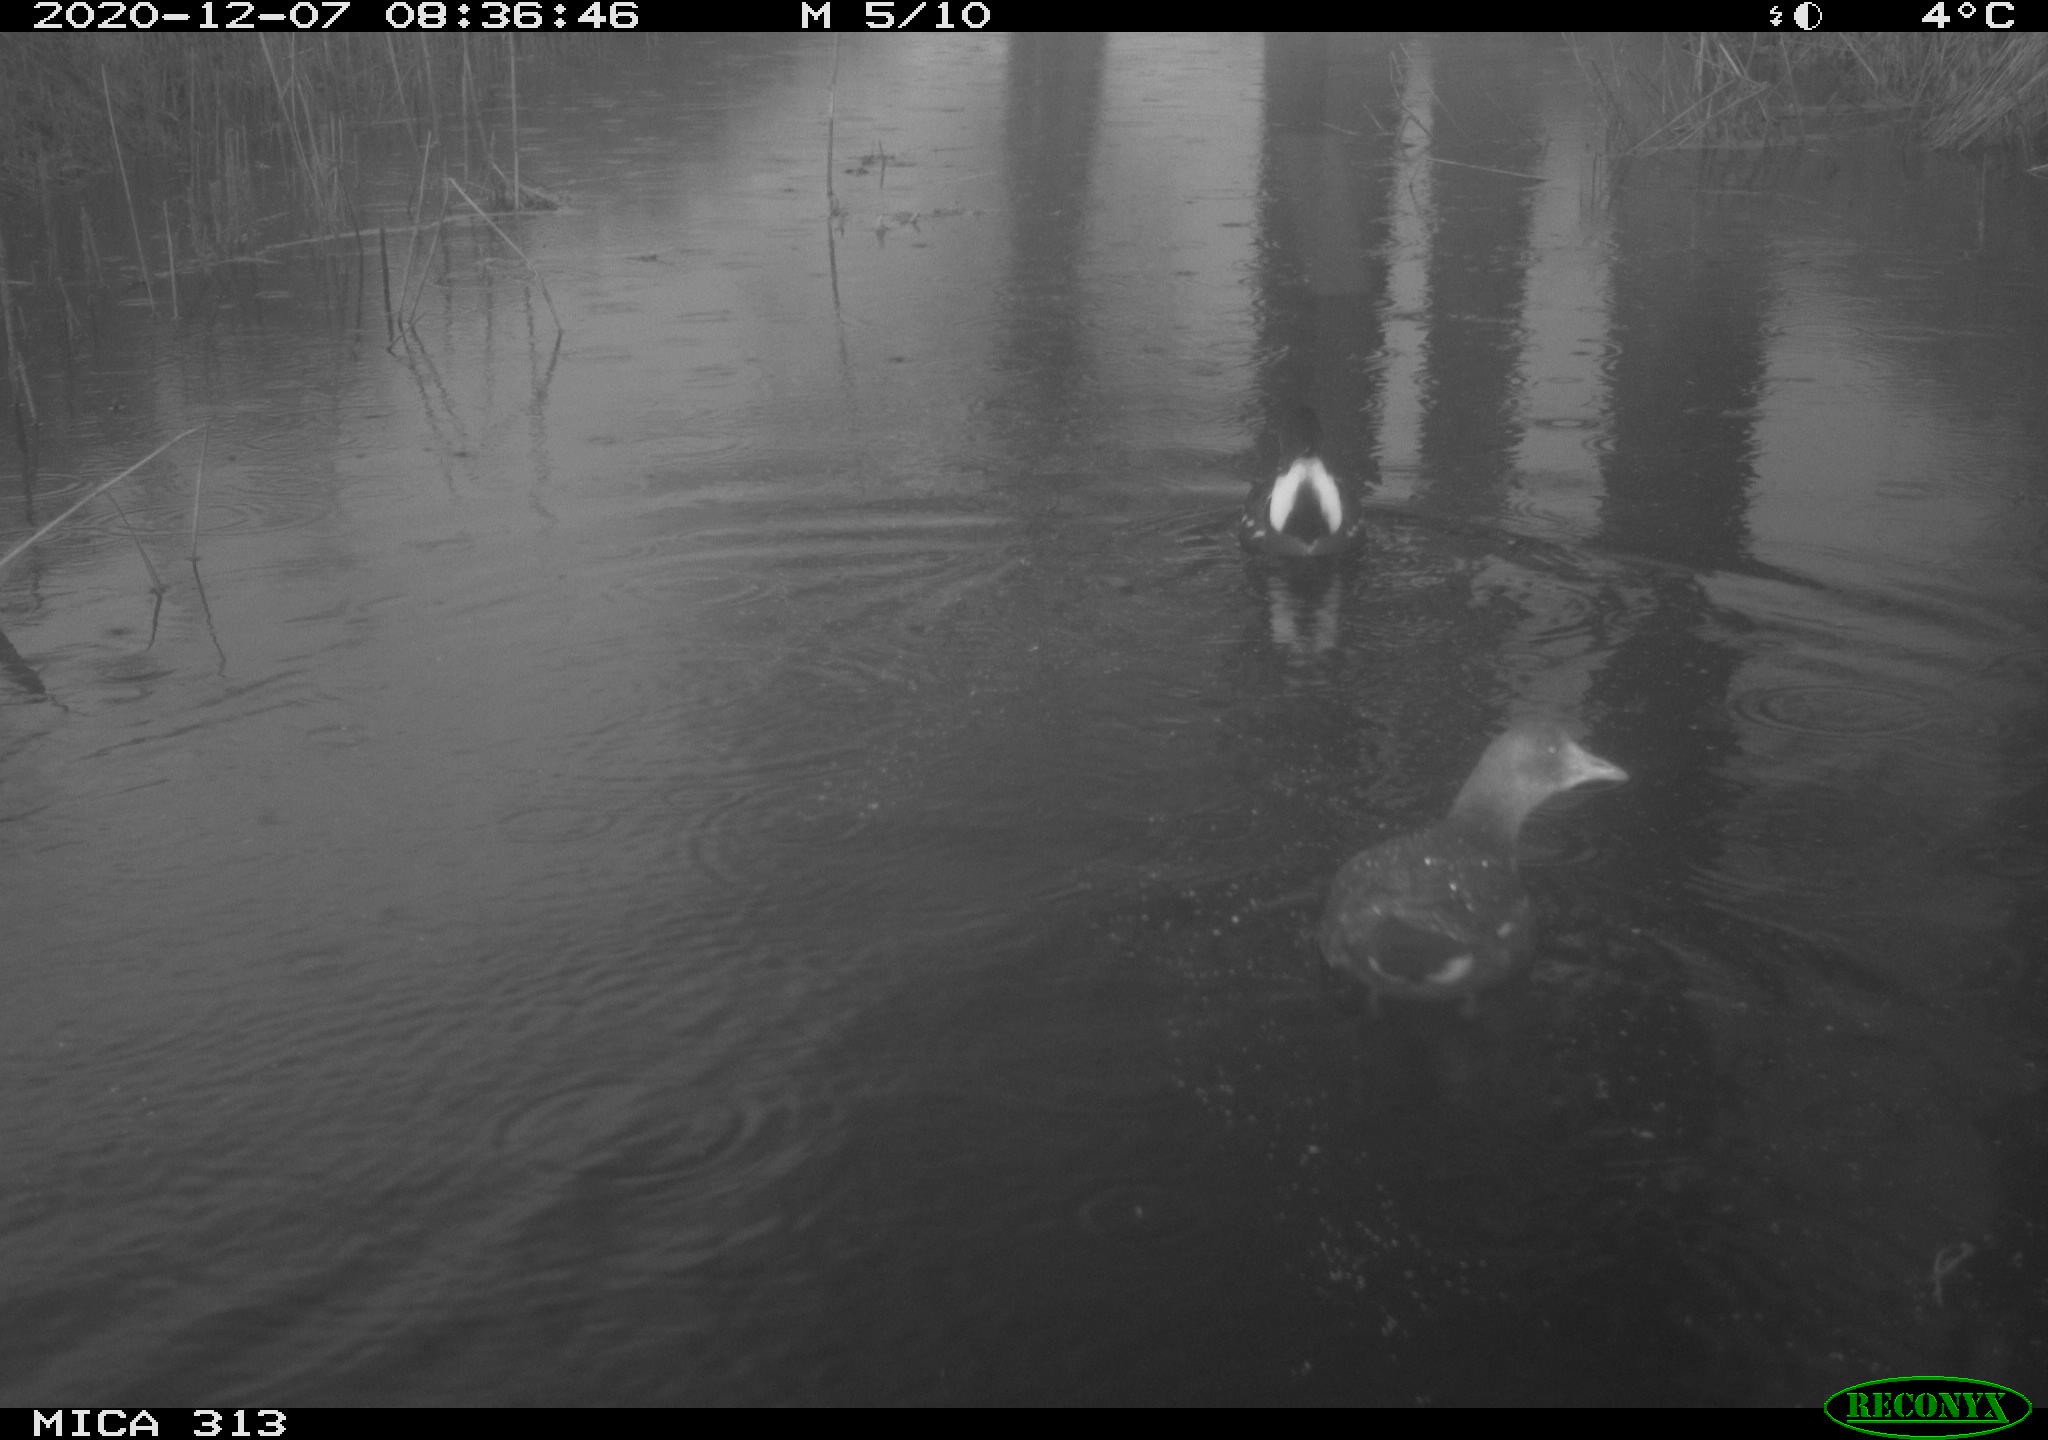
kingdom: Animalia
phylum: Chordata
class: Aves
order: Gruiformes
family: Rallidae
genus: Gallinula
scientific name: Gallinula chloropus
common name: Common moorhen
